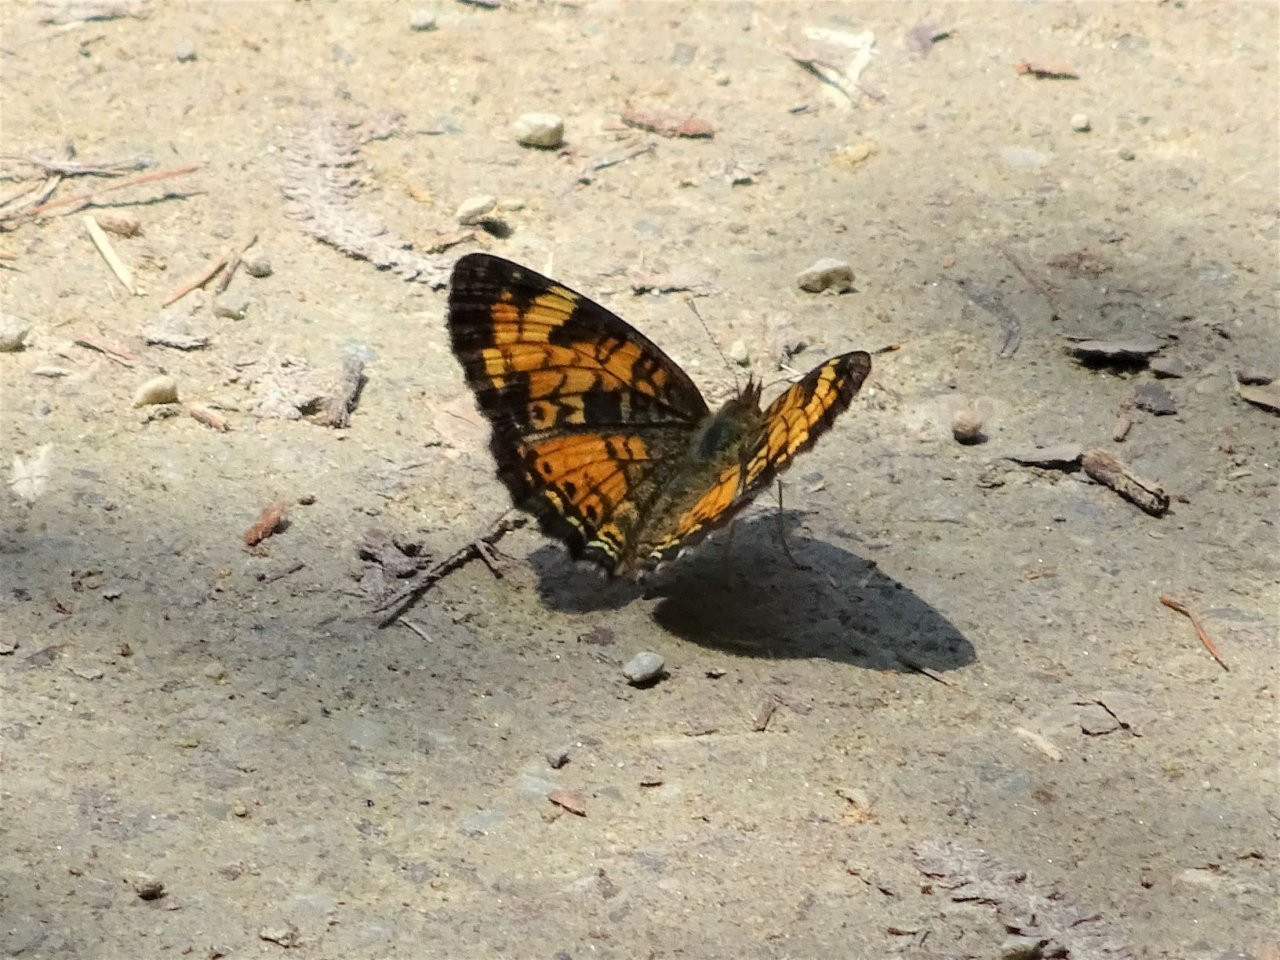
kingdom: Animalia
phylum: Arthropoda
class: Insecta
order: Lepidoptera
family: Nymphalidae
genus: Phyciodes
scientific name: Phyciodes tharos
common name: Northern Crescent
